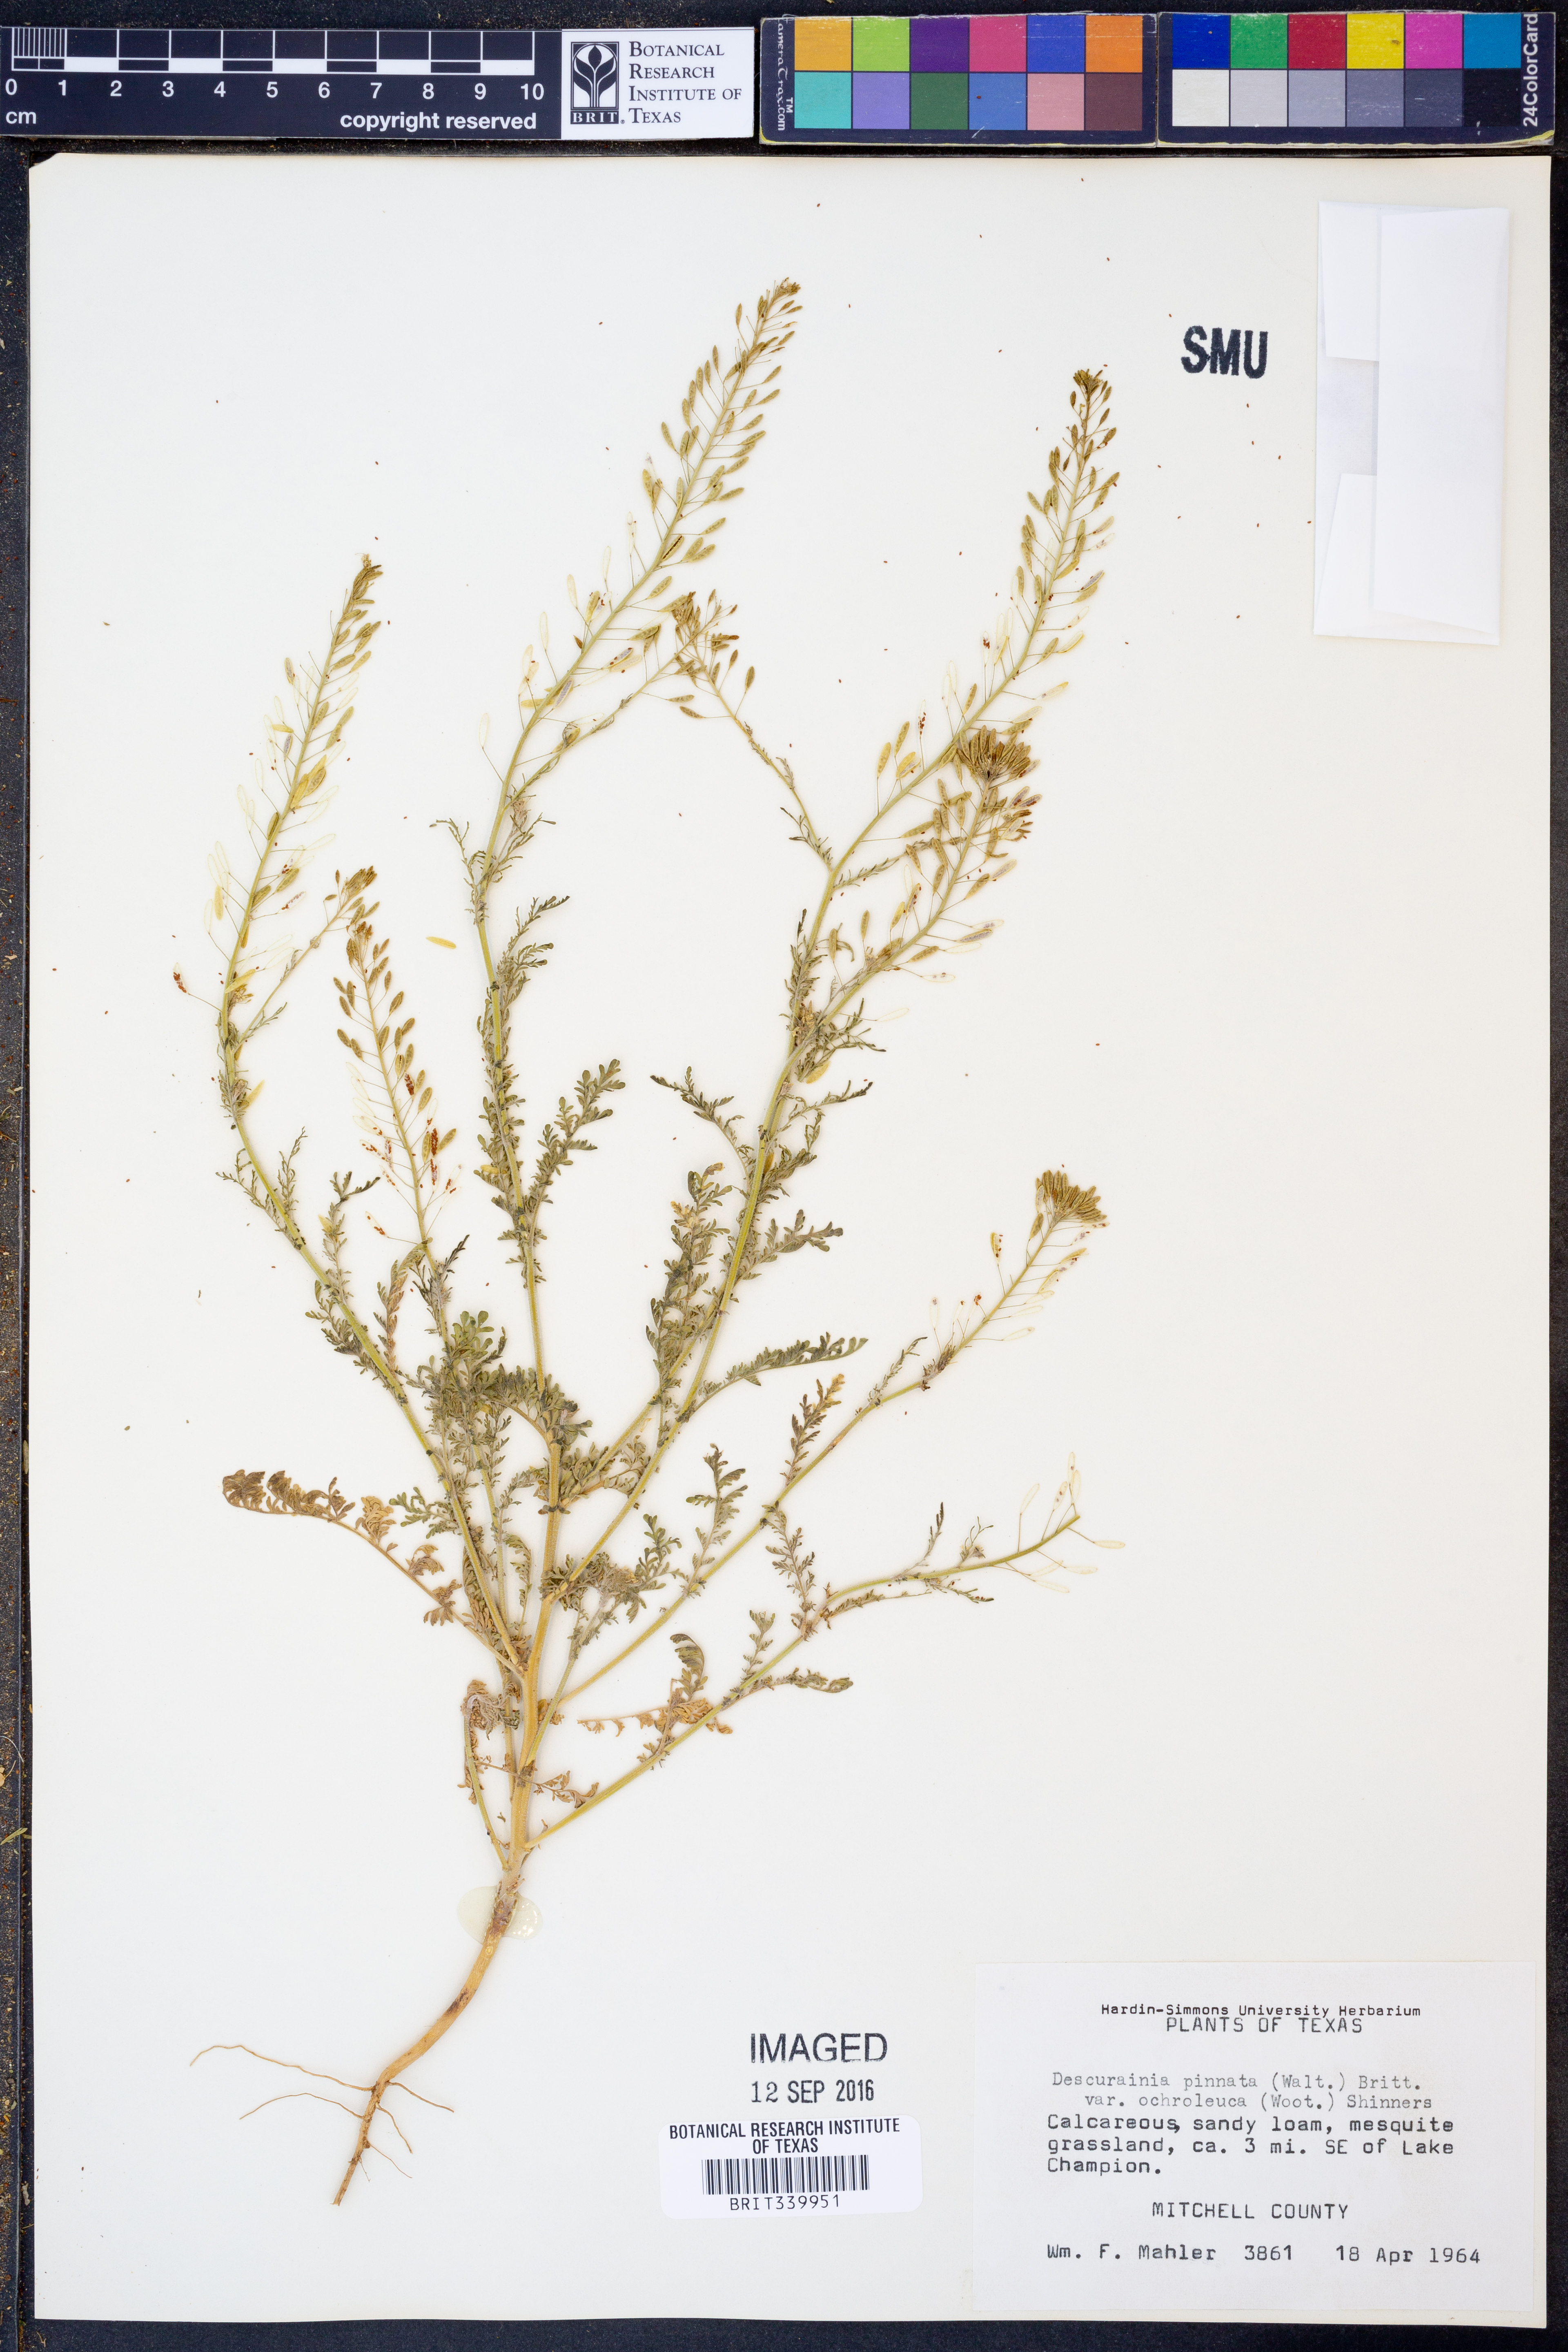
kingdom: Plantae
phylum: Tracheophyta
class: Magnoliopsida
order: Brassicales
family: Brassicaceae
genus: Descurainia
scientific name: Descurainia pinnata
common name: Western tansy mustard
